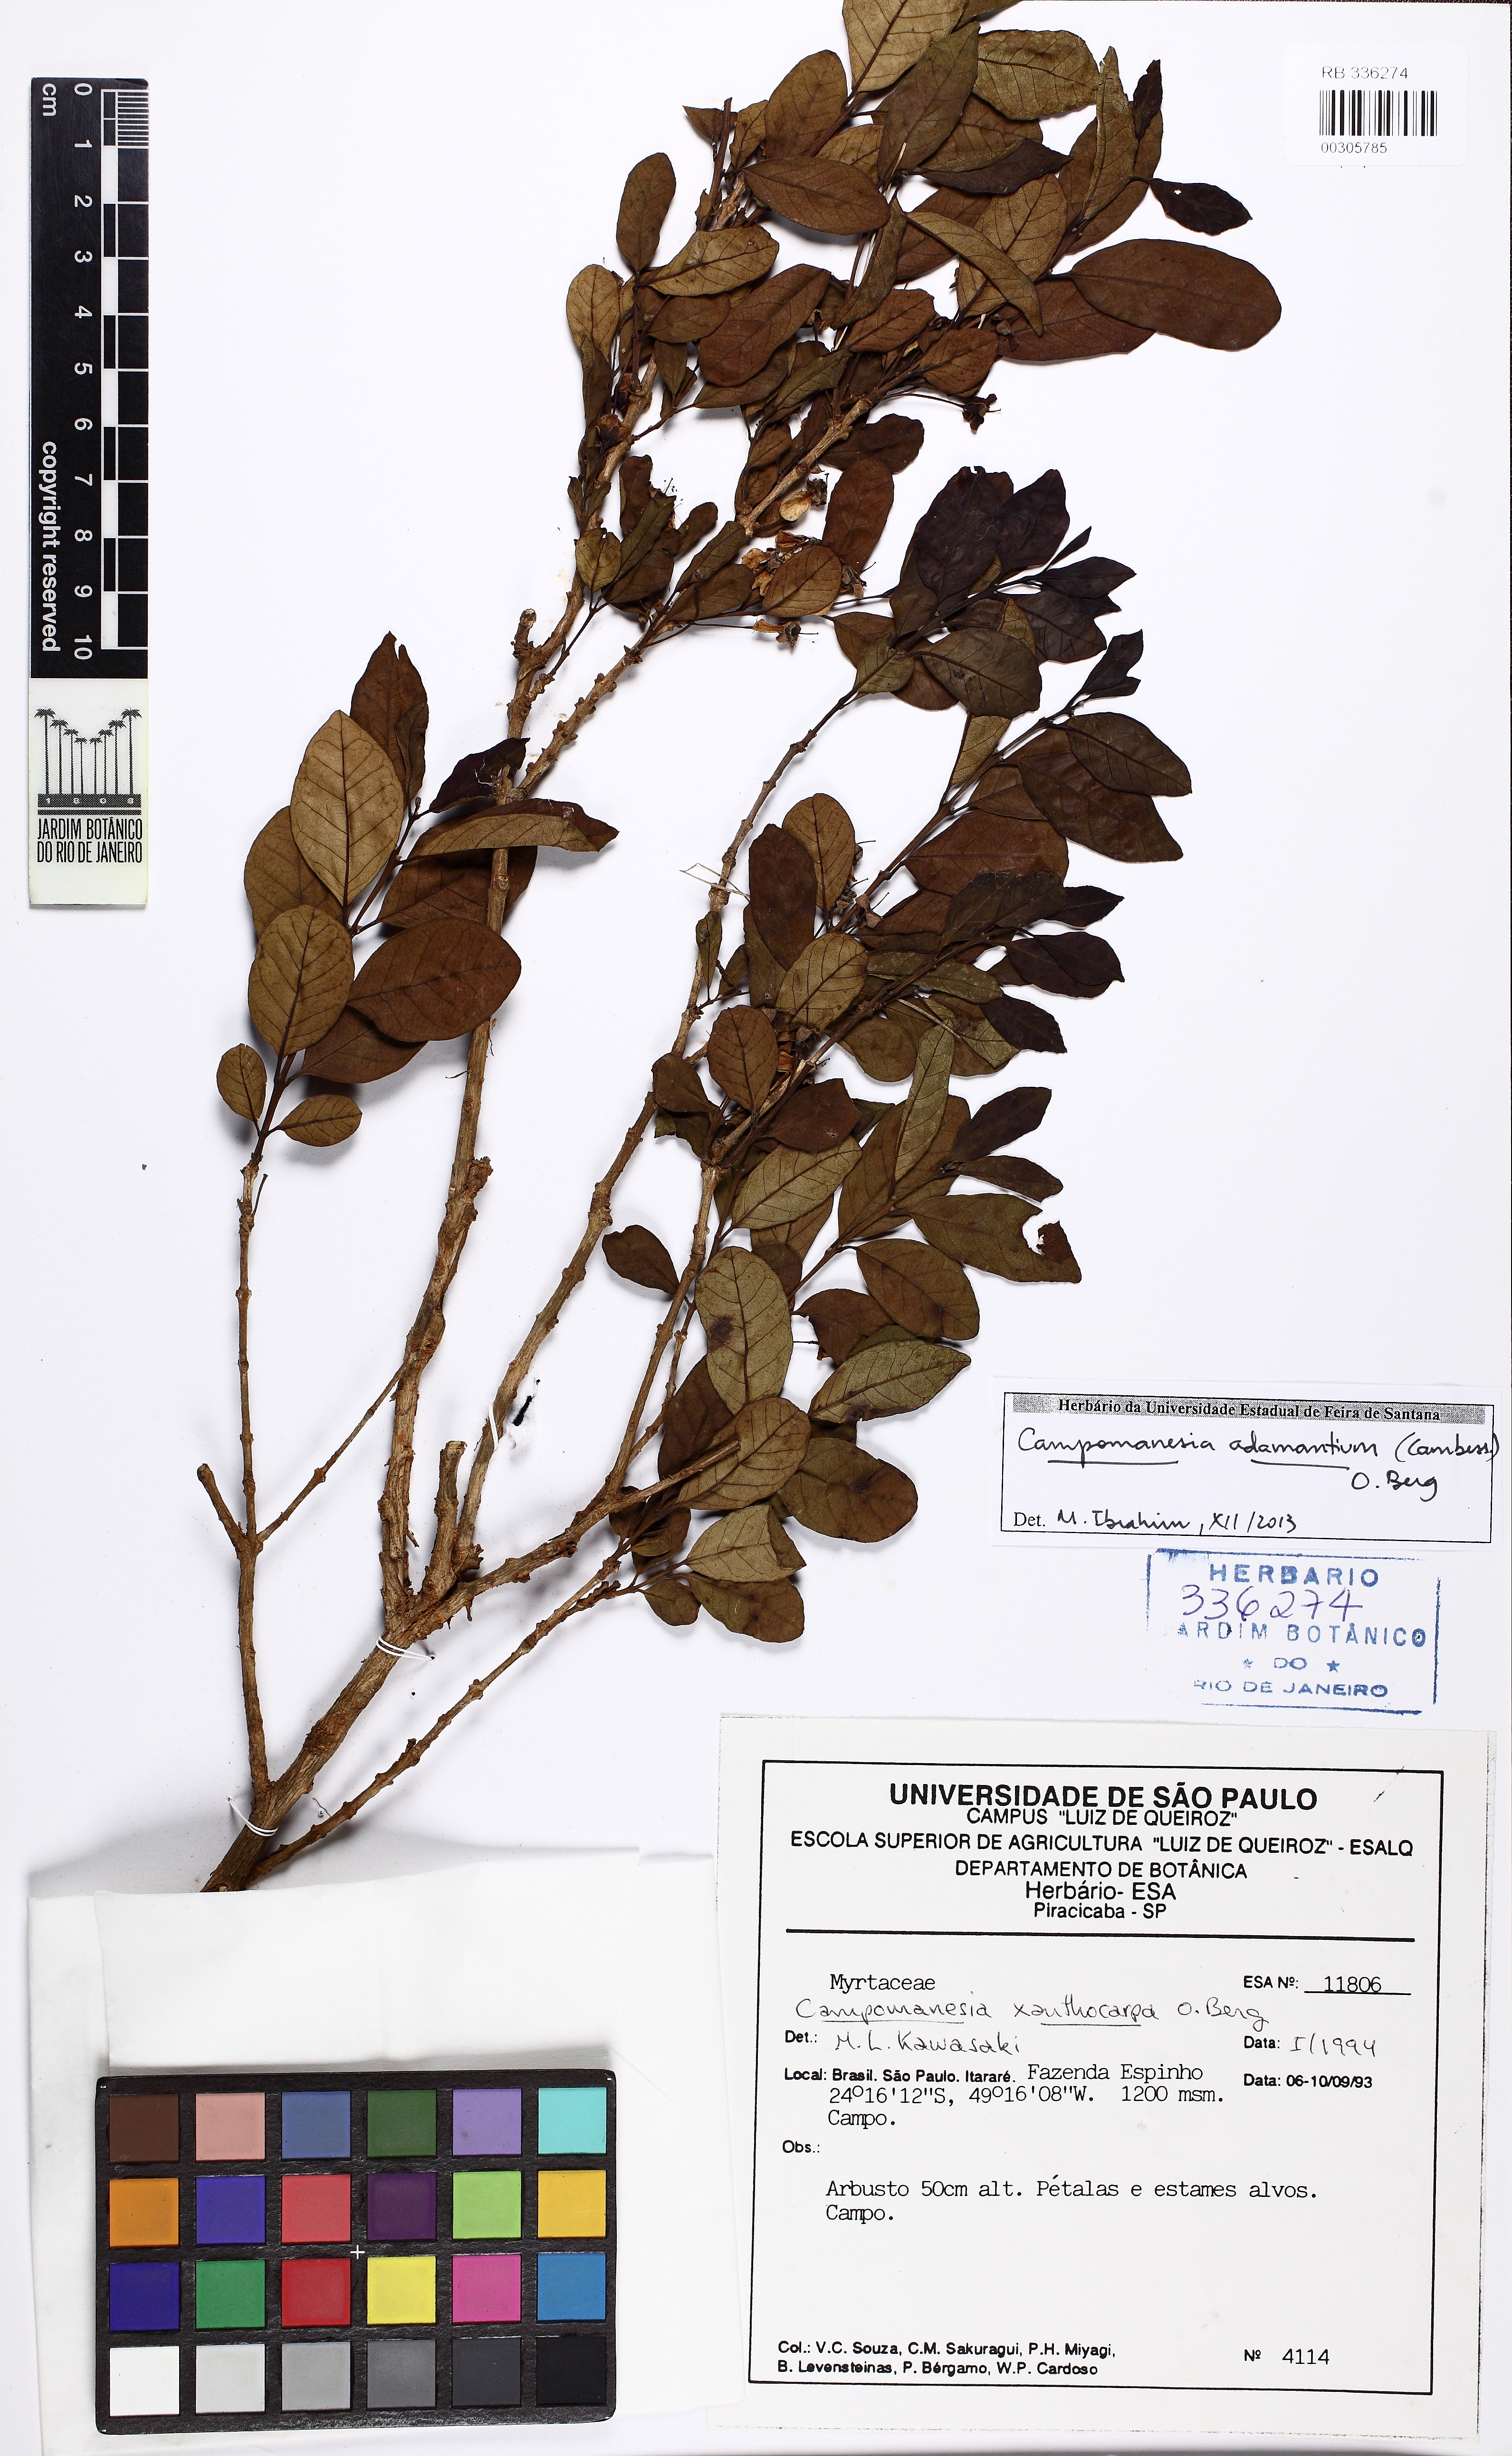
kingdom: Plantae
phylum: Tracheophyta
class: Magnoliopsida
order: Myrtales
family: Myrtaceae
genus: Campomanesia
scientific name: Campomanesia adamantium
